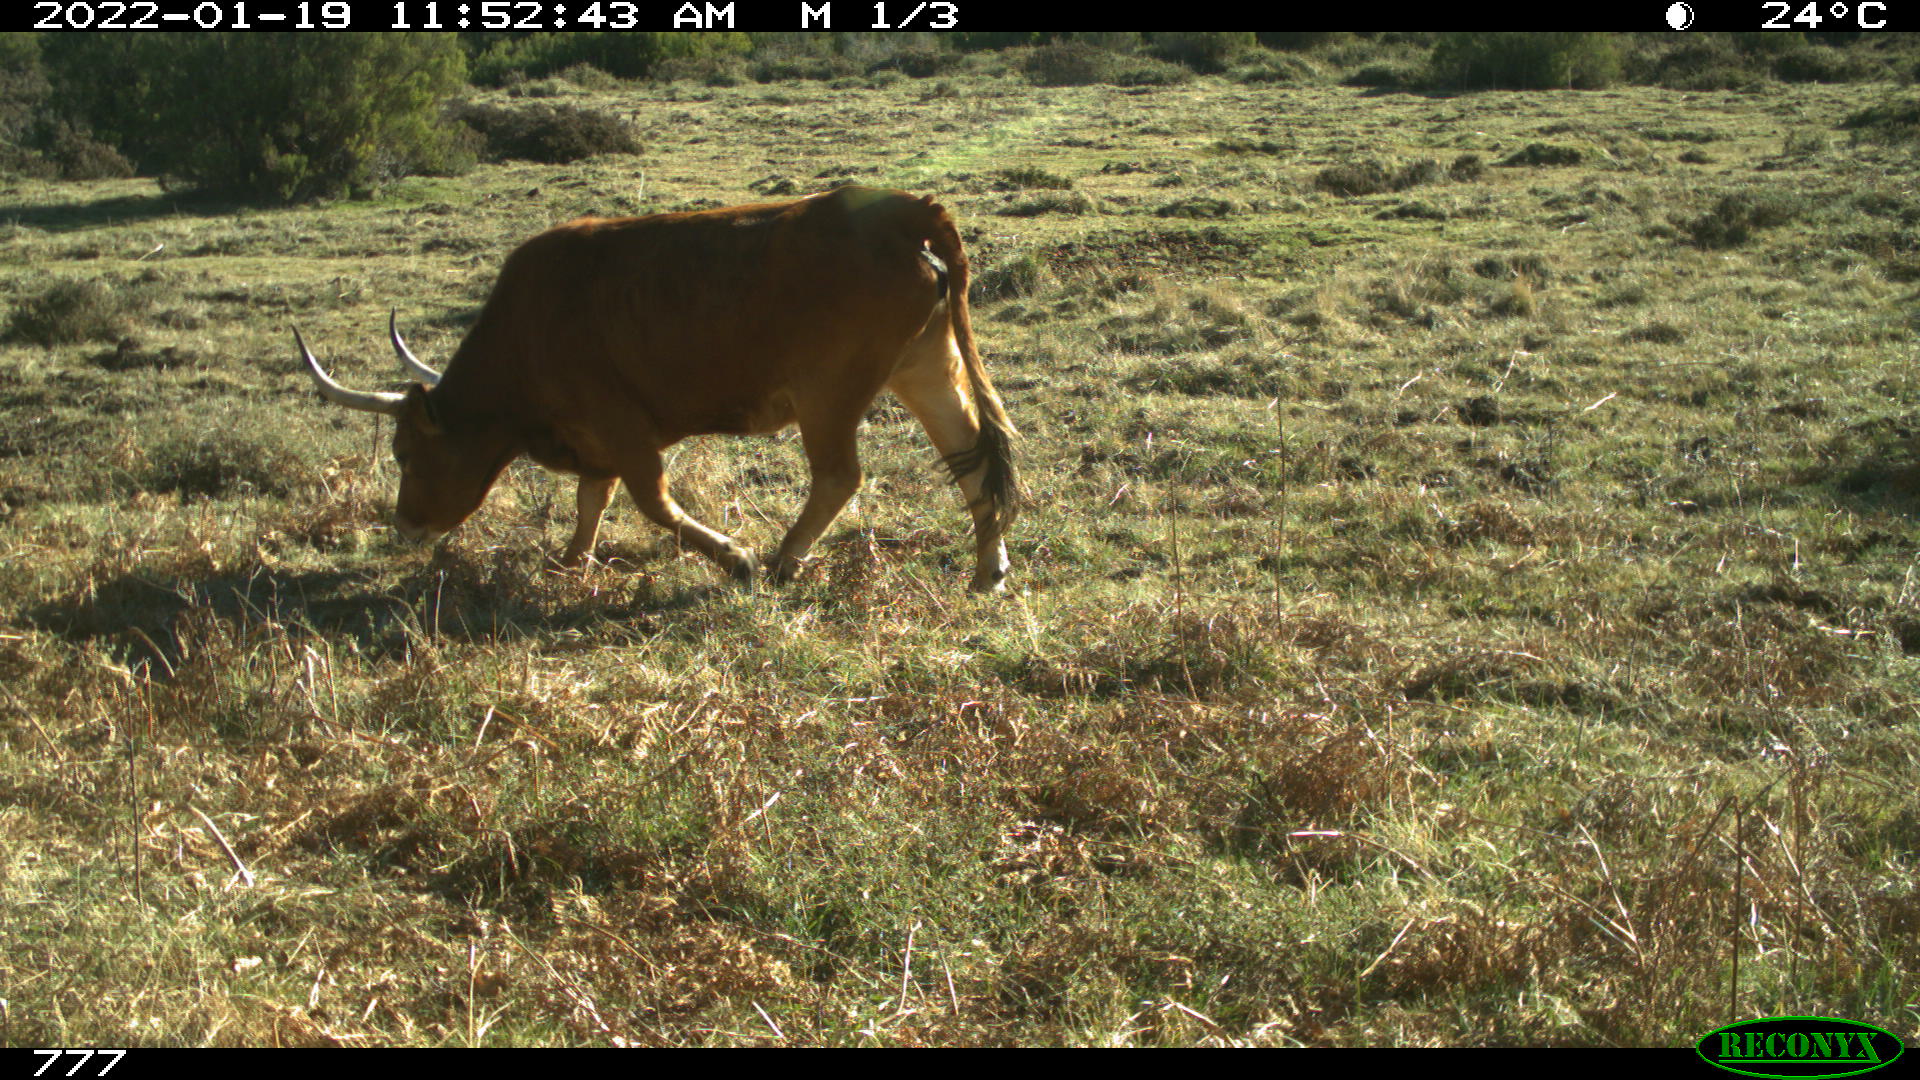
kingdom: Animalia
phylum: Chordata
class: Mammalia
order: Artiodactyla
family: Bovidae
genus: Bos
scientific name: Bos taurus
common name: Domesticated cattle
